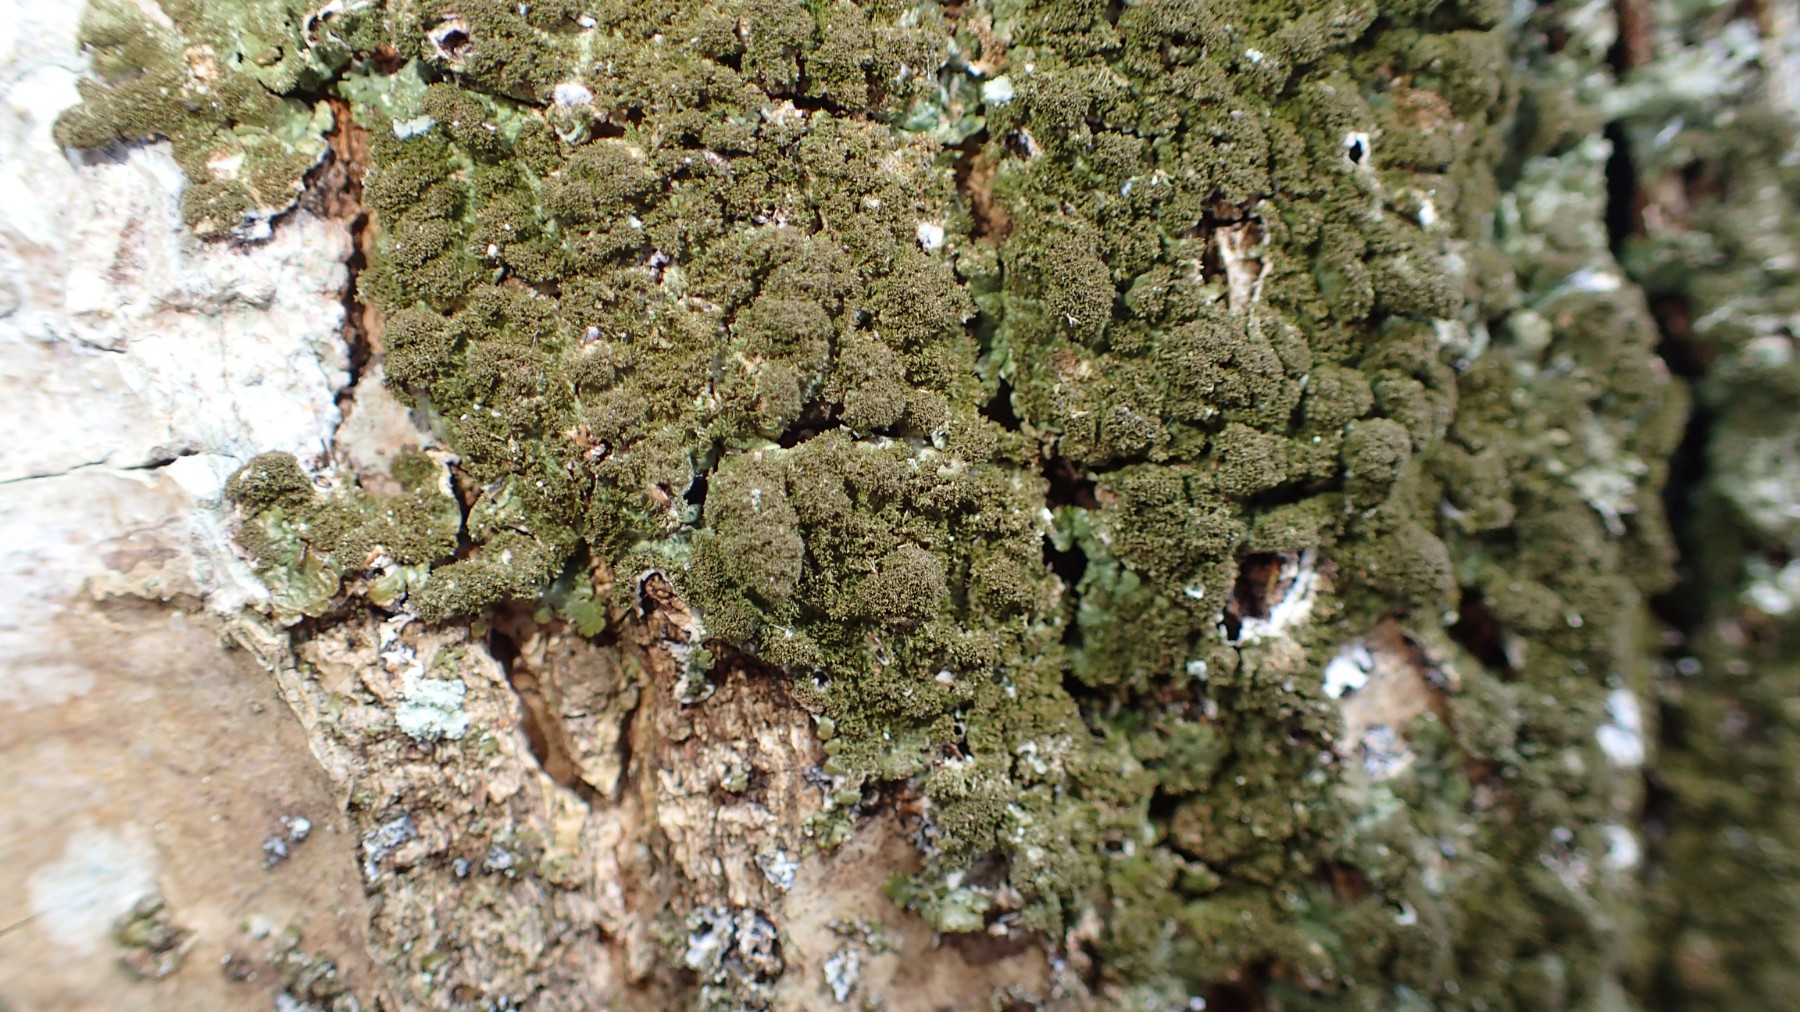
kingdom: Fungi
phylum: Ascomycota
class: Lecanoromycetes
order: Lecanorales
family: Parmeliaceae
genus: Melanelixia
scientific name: Melanelixia glabratula
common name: glinsende skållav
